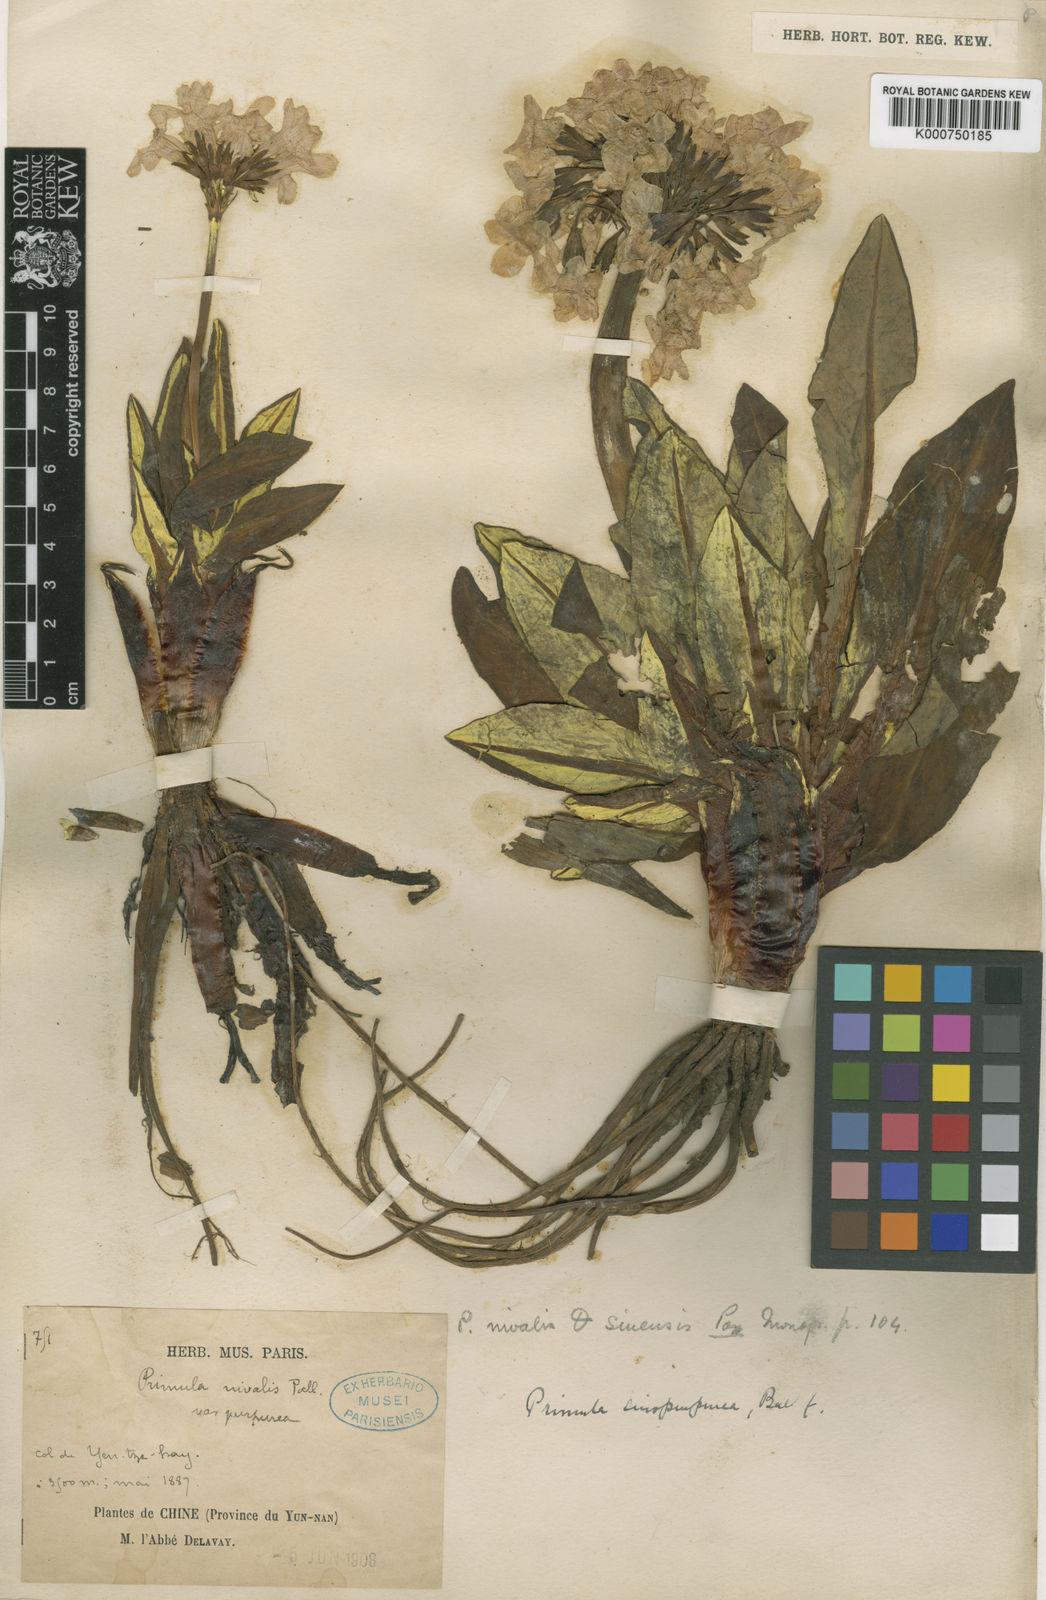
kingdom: Plantae
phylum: Tracheophyta
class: Magnoliopsida
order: Ericales
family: Primulaceae
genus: Primula
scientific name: Primula
